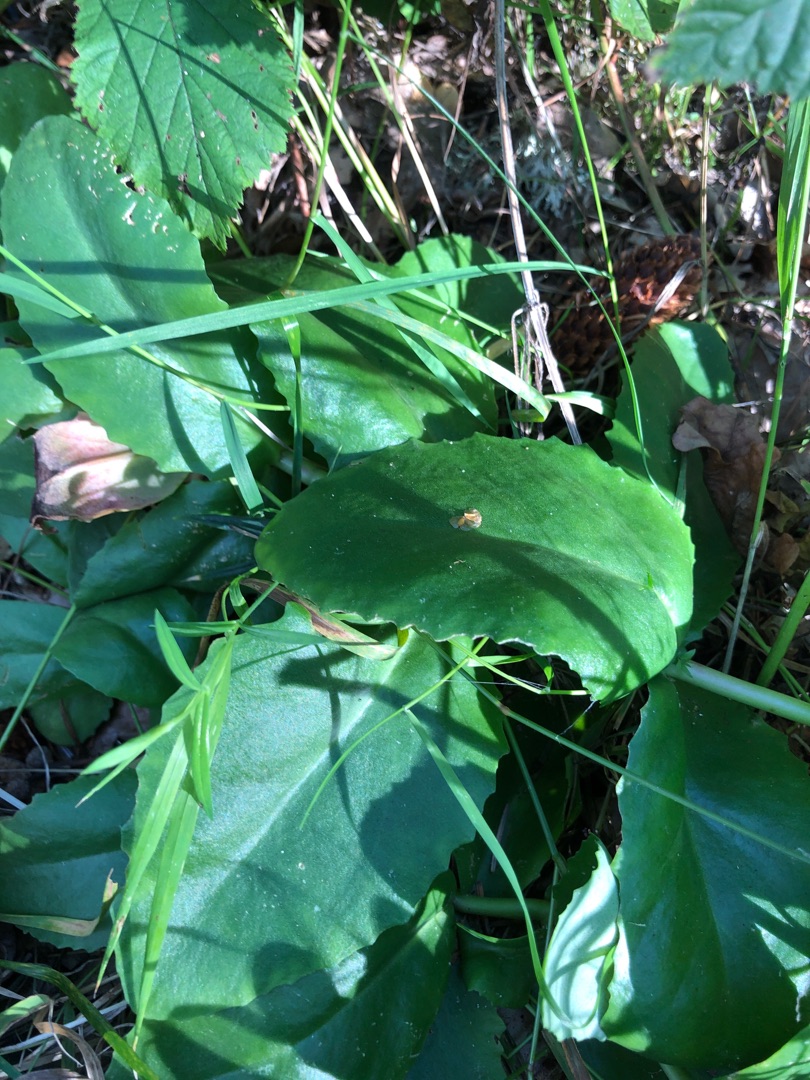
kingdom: Plantae
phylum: Tracheophyta
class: Magnoliopsida
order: Saxifragales
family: Crassulaceae
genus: Hylotelephium
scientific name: Hylotelephium telephium
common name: Sankthansurt
